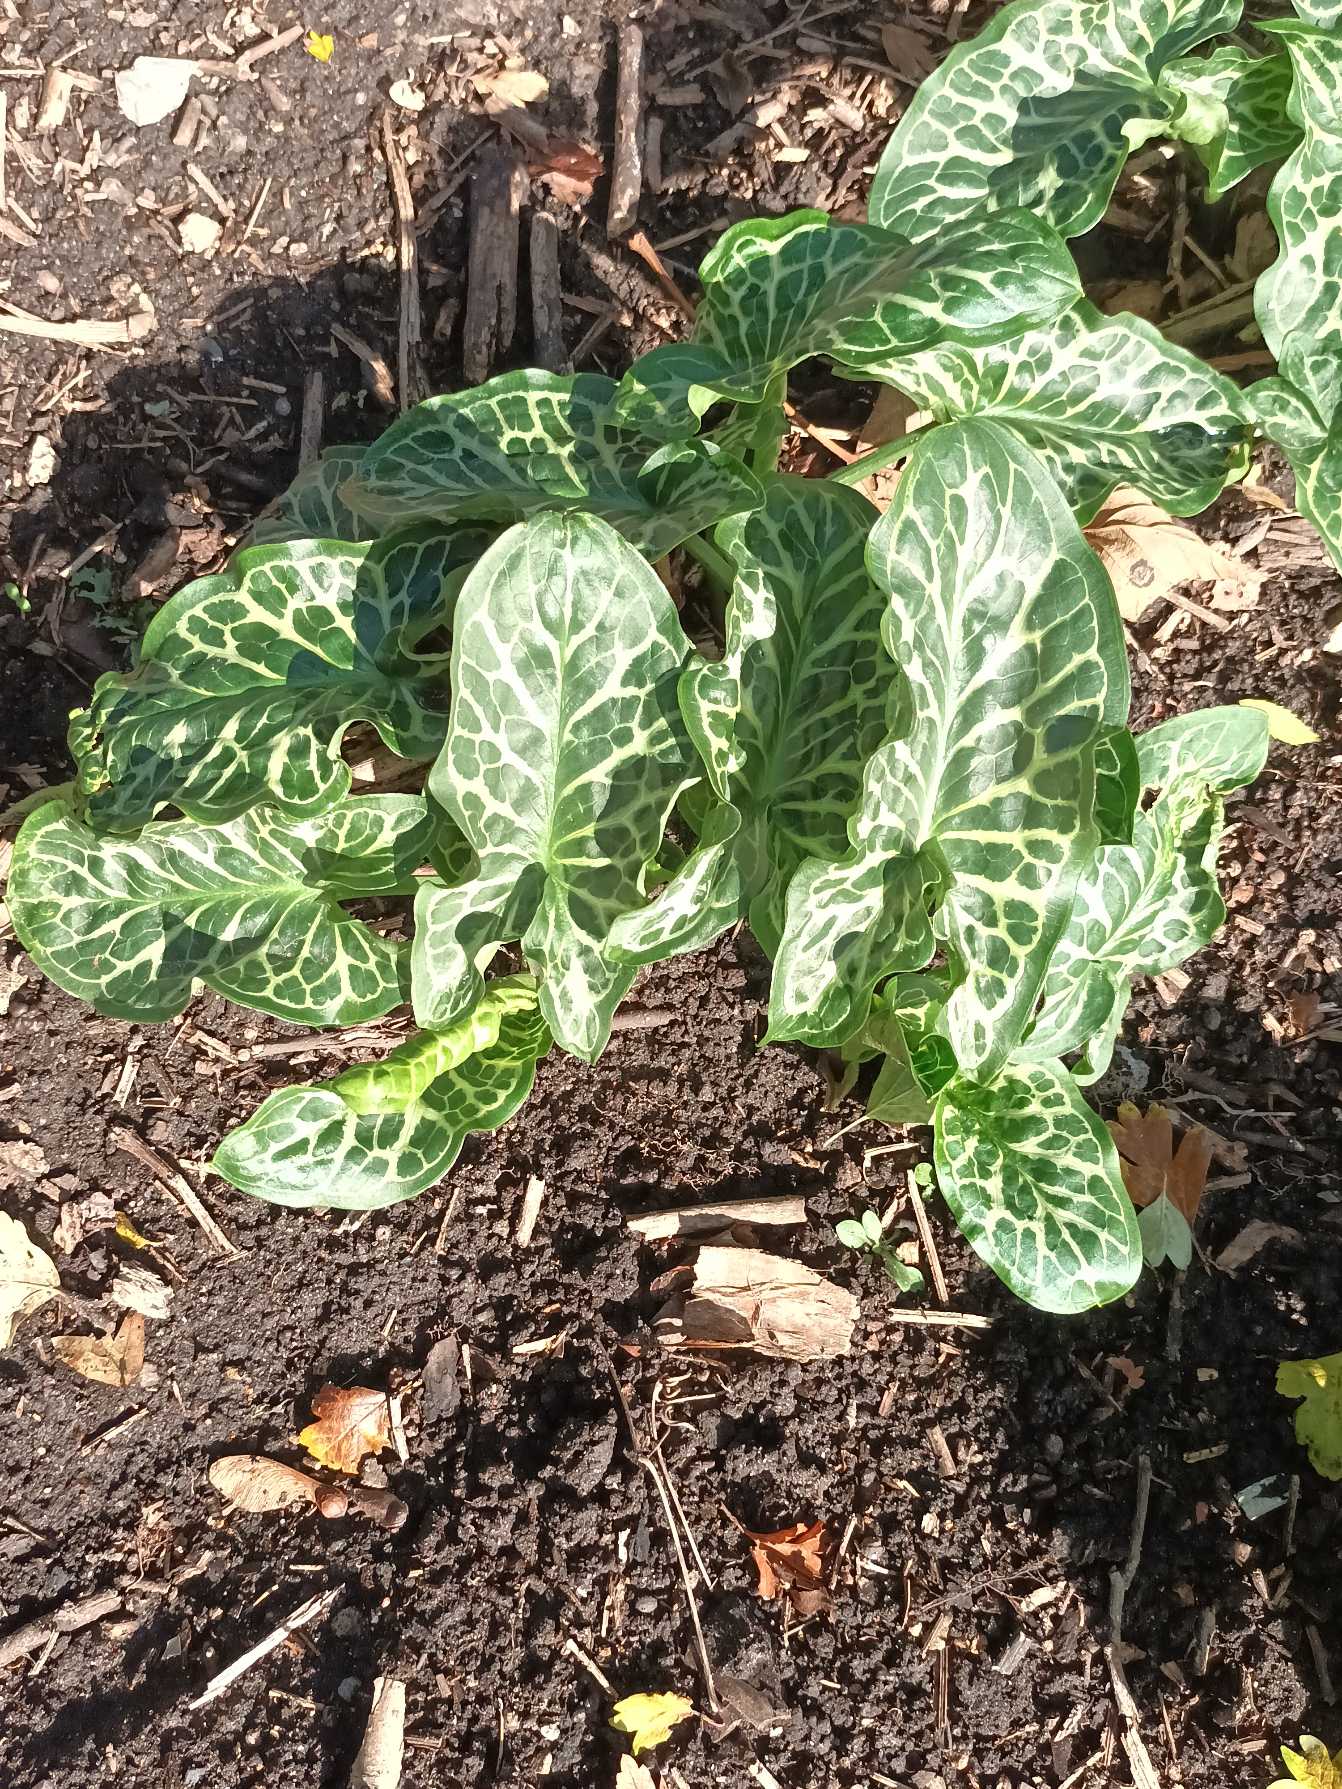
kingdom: Plantae
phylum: Tracheophyta
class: Liliopsida
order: Alismatales
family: Araceae
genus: Arum
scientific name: Arum italicum
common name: Italiensk arum
